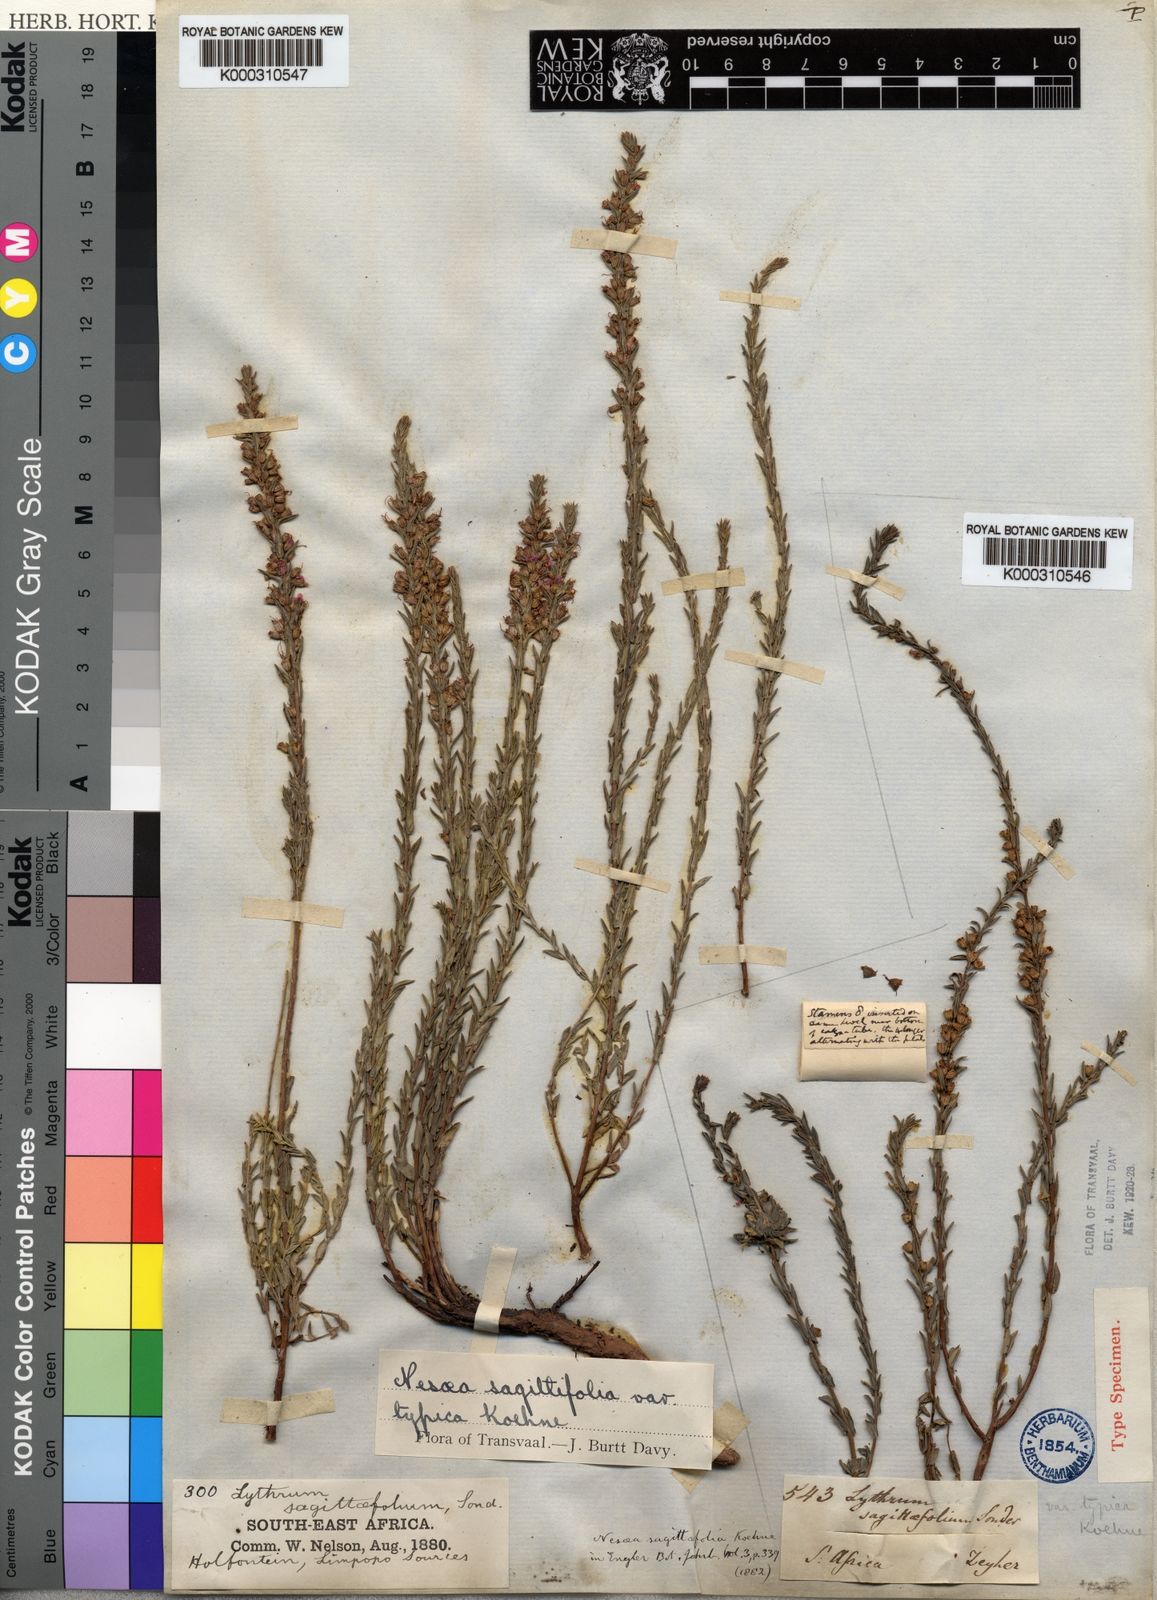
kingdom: Plantae
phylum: Tracheophyta
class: Magnoliopsida
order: Myrtales
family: Lythraceae
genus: Nesaea
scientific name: Nesaea
